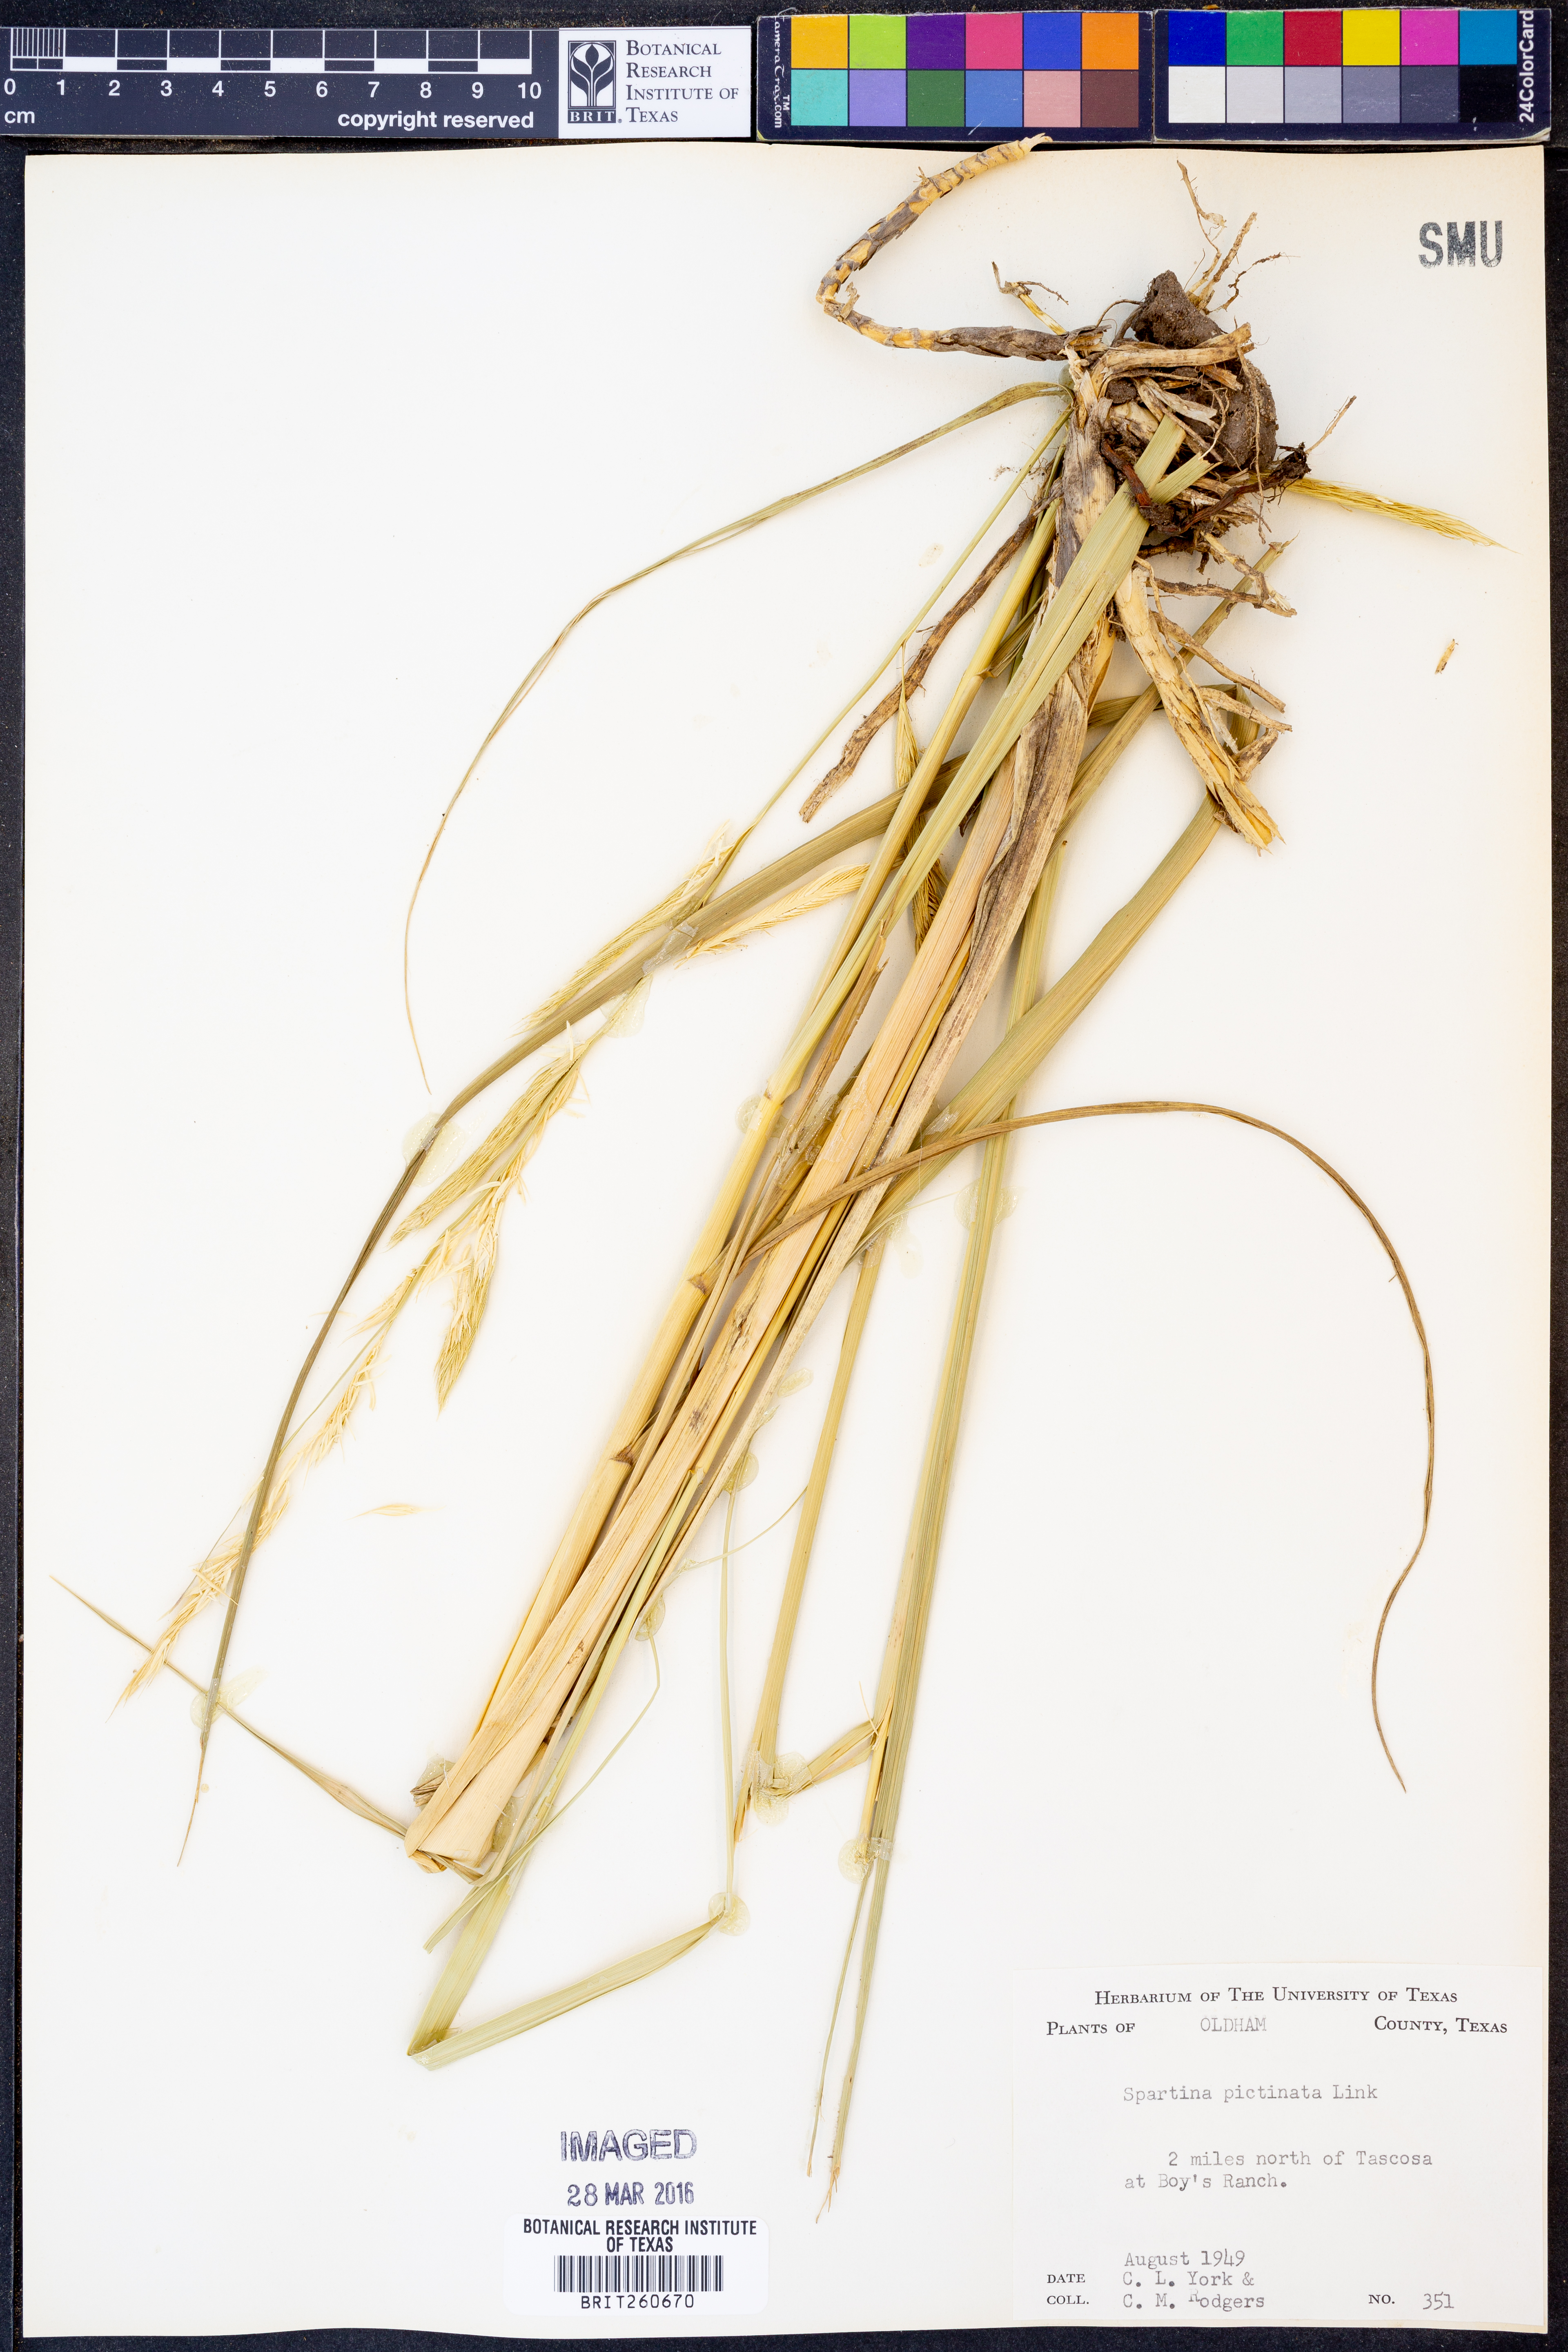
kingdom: Plantae
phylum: Tracheophyta
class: Liliopsida
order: Poales
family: Poaceae
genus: Sporobolus
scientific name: Sporobolus michauxianus
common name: Freshwater cordgrass
